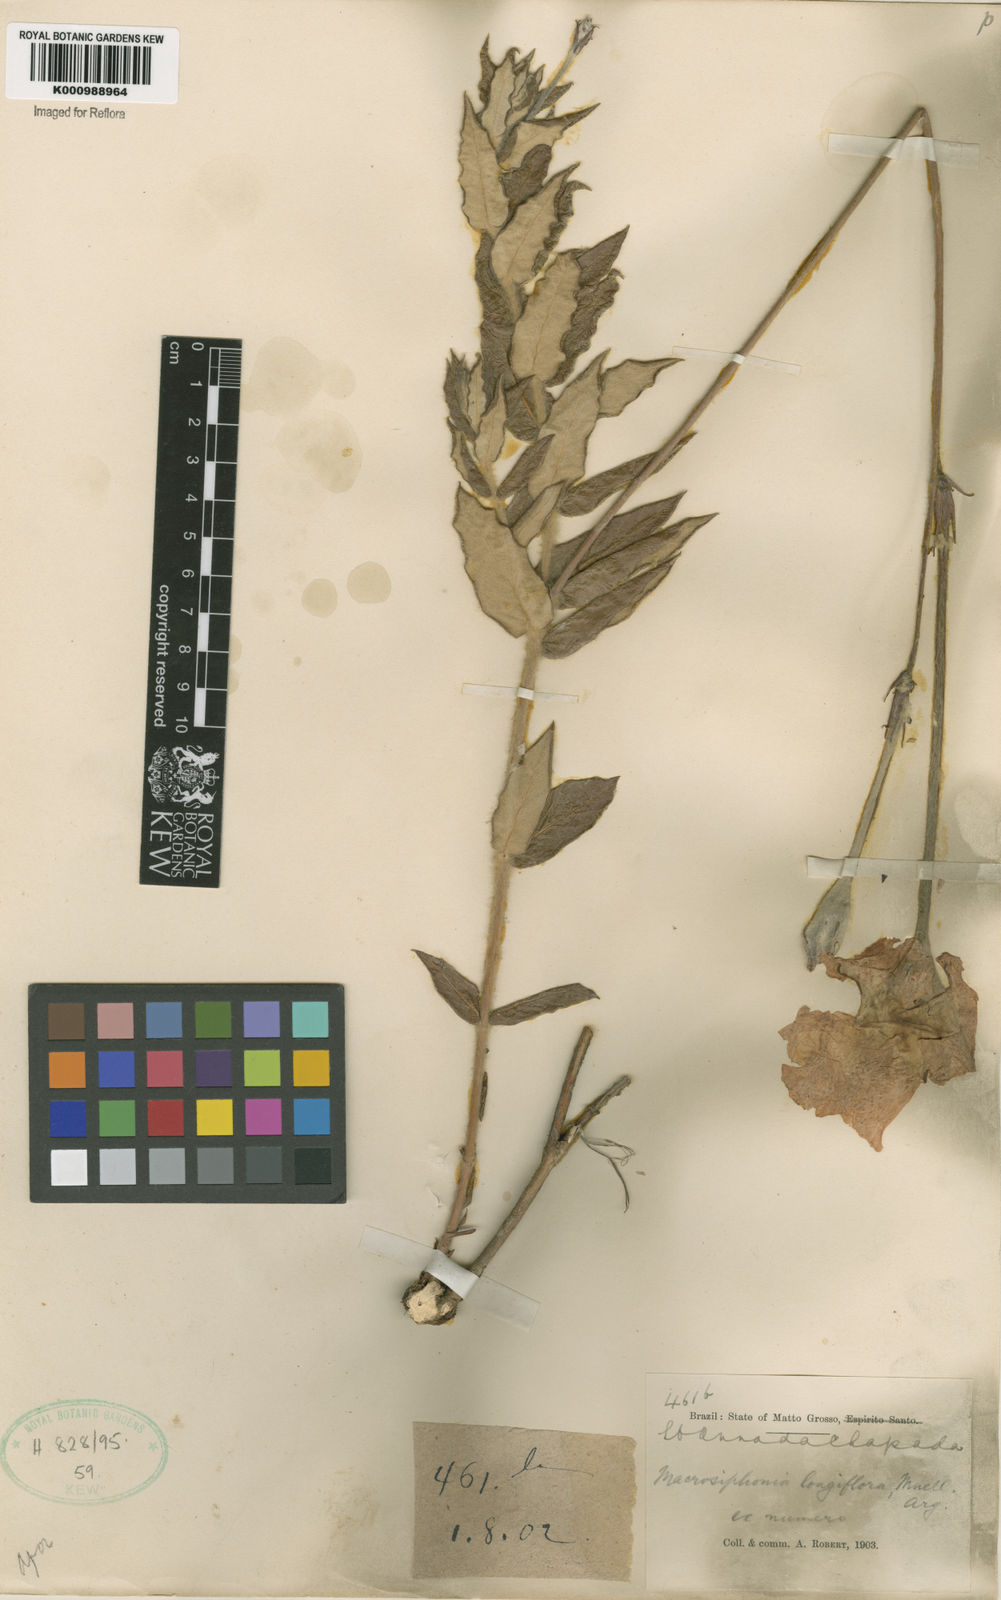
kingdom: Plantae
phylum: Tracheophyta
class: Magnoliopsida
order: Gentianales
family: Apocynaceae
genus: Mandevilla
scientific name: Mandevilla longiflora
